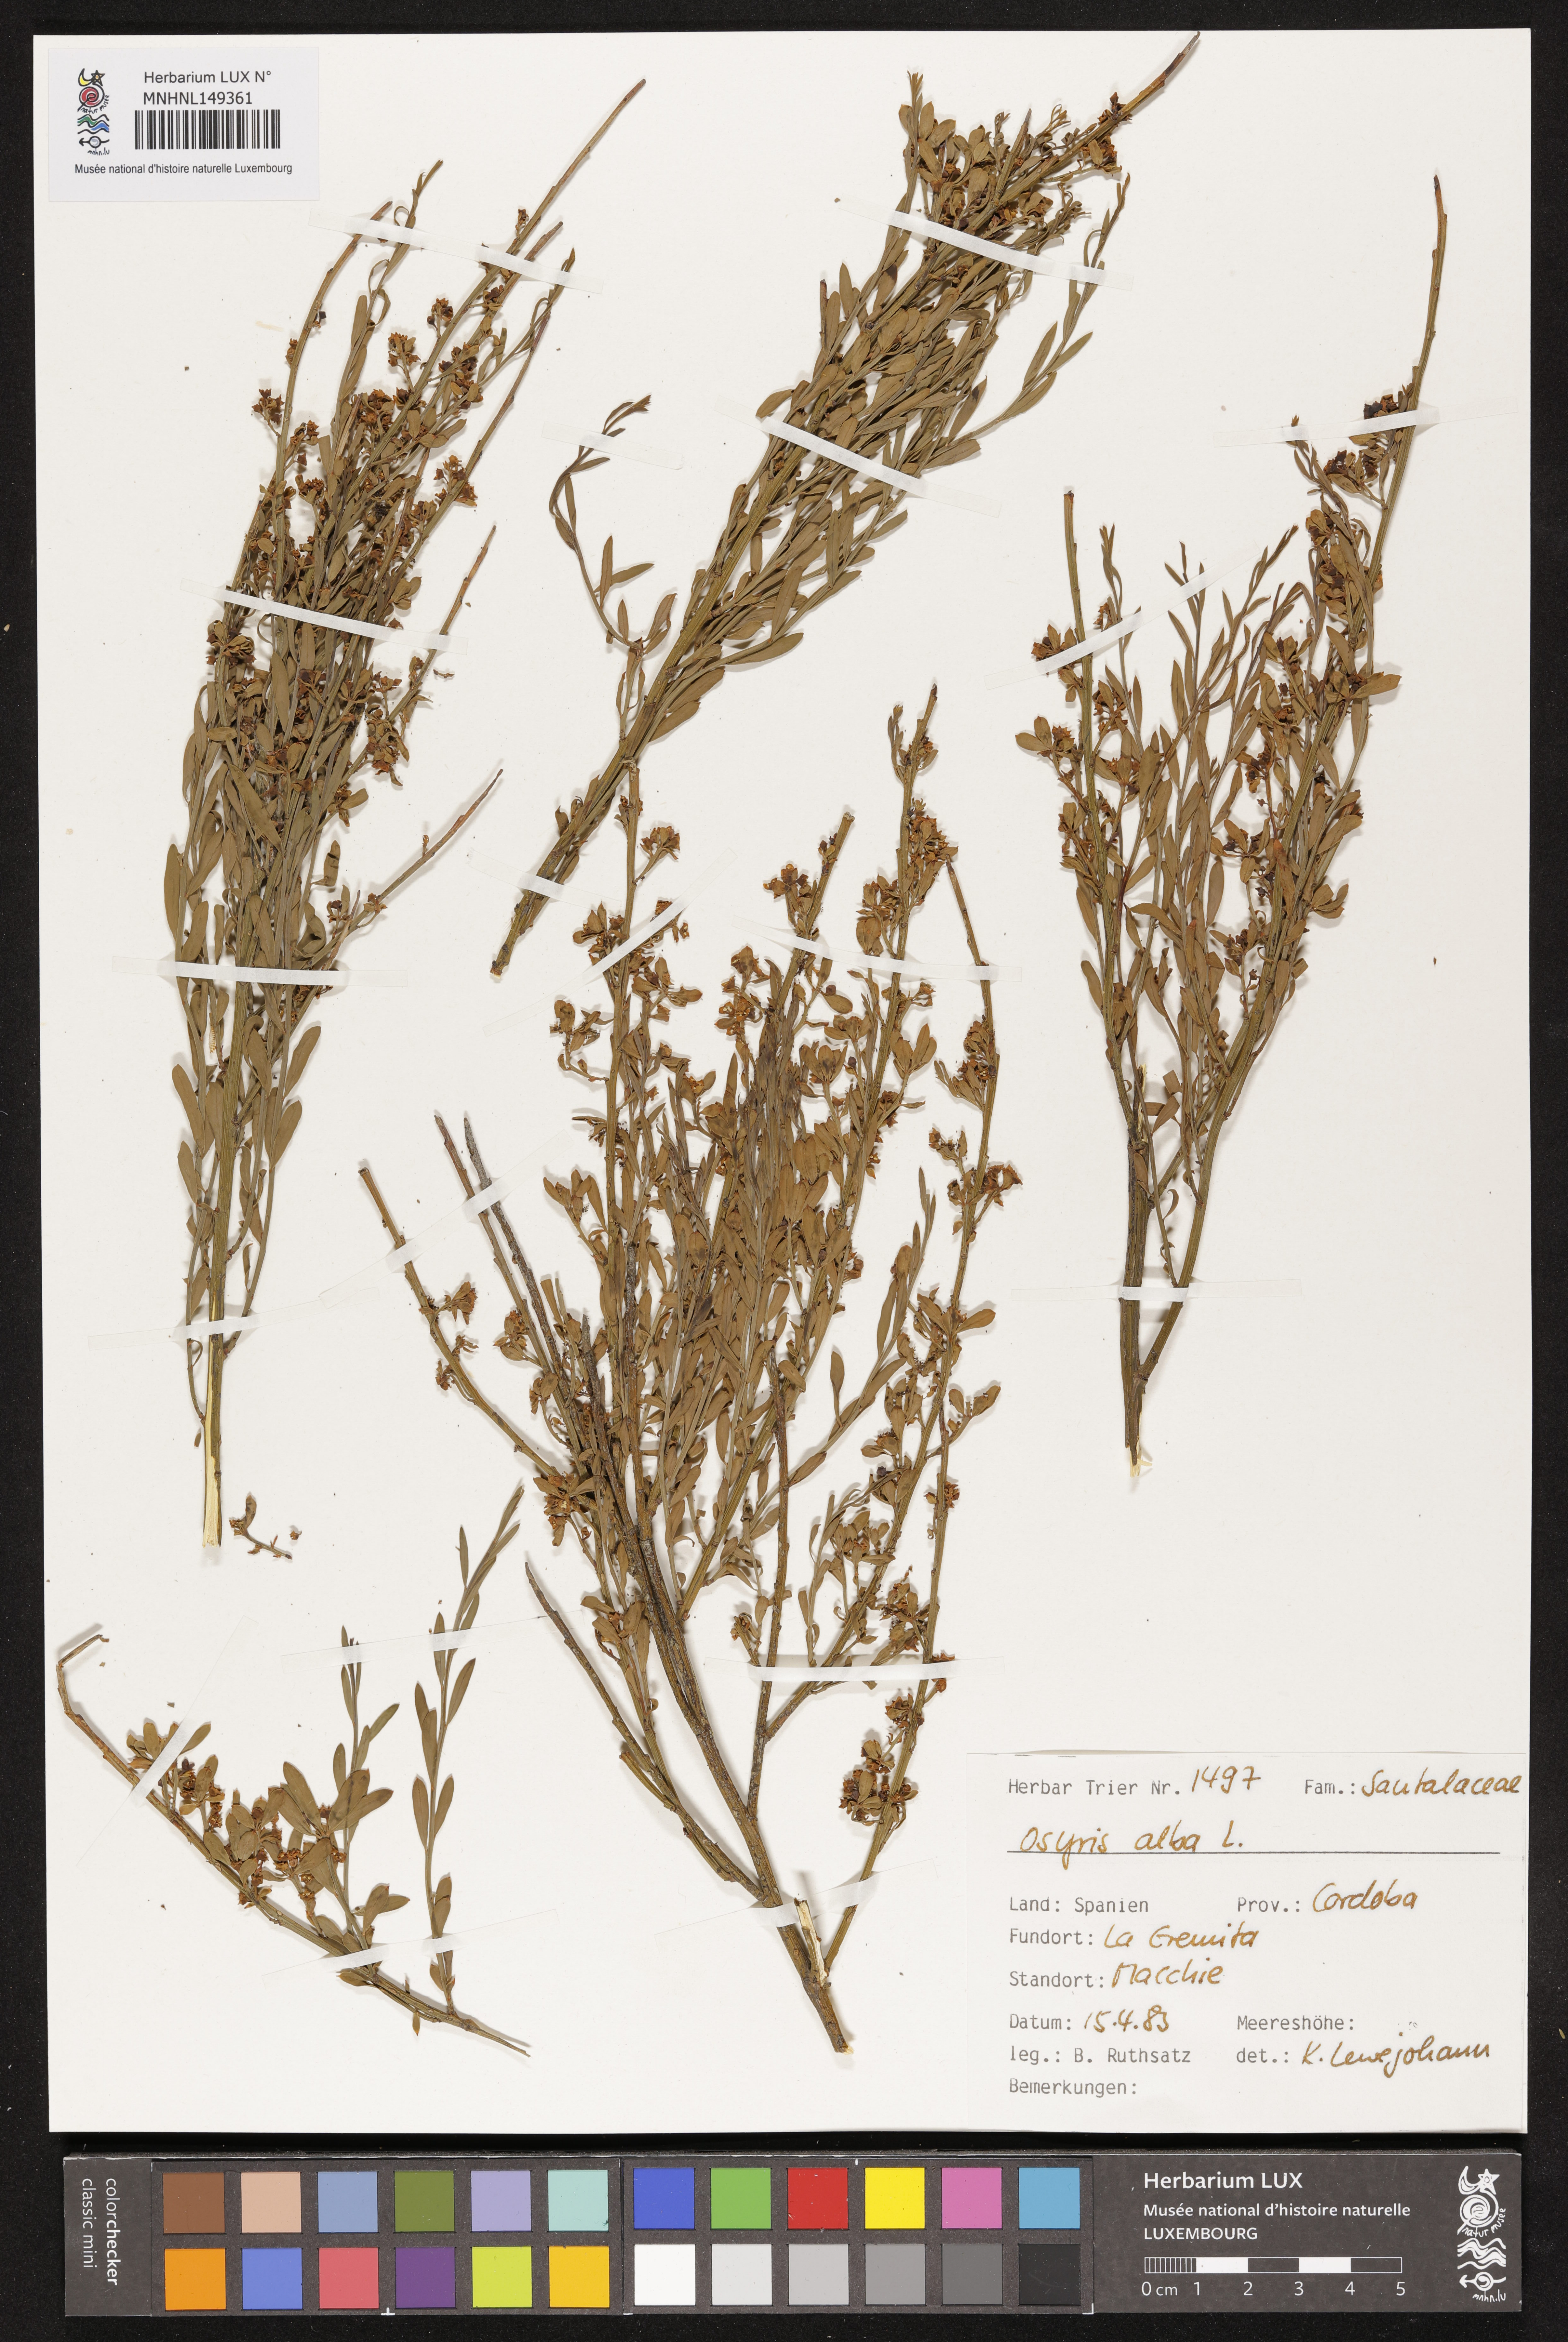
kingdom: Plantae
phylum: Tracheophyta
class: Magnoliopsida
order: Santalales
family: Santalaceae
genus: Osyris
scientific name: Osyris alba
